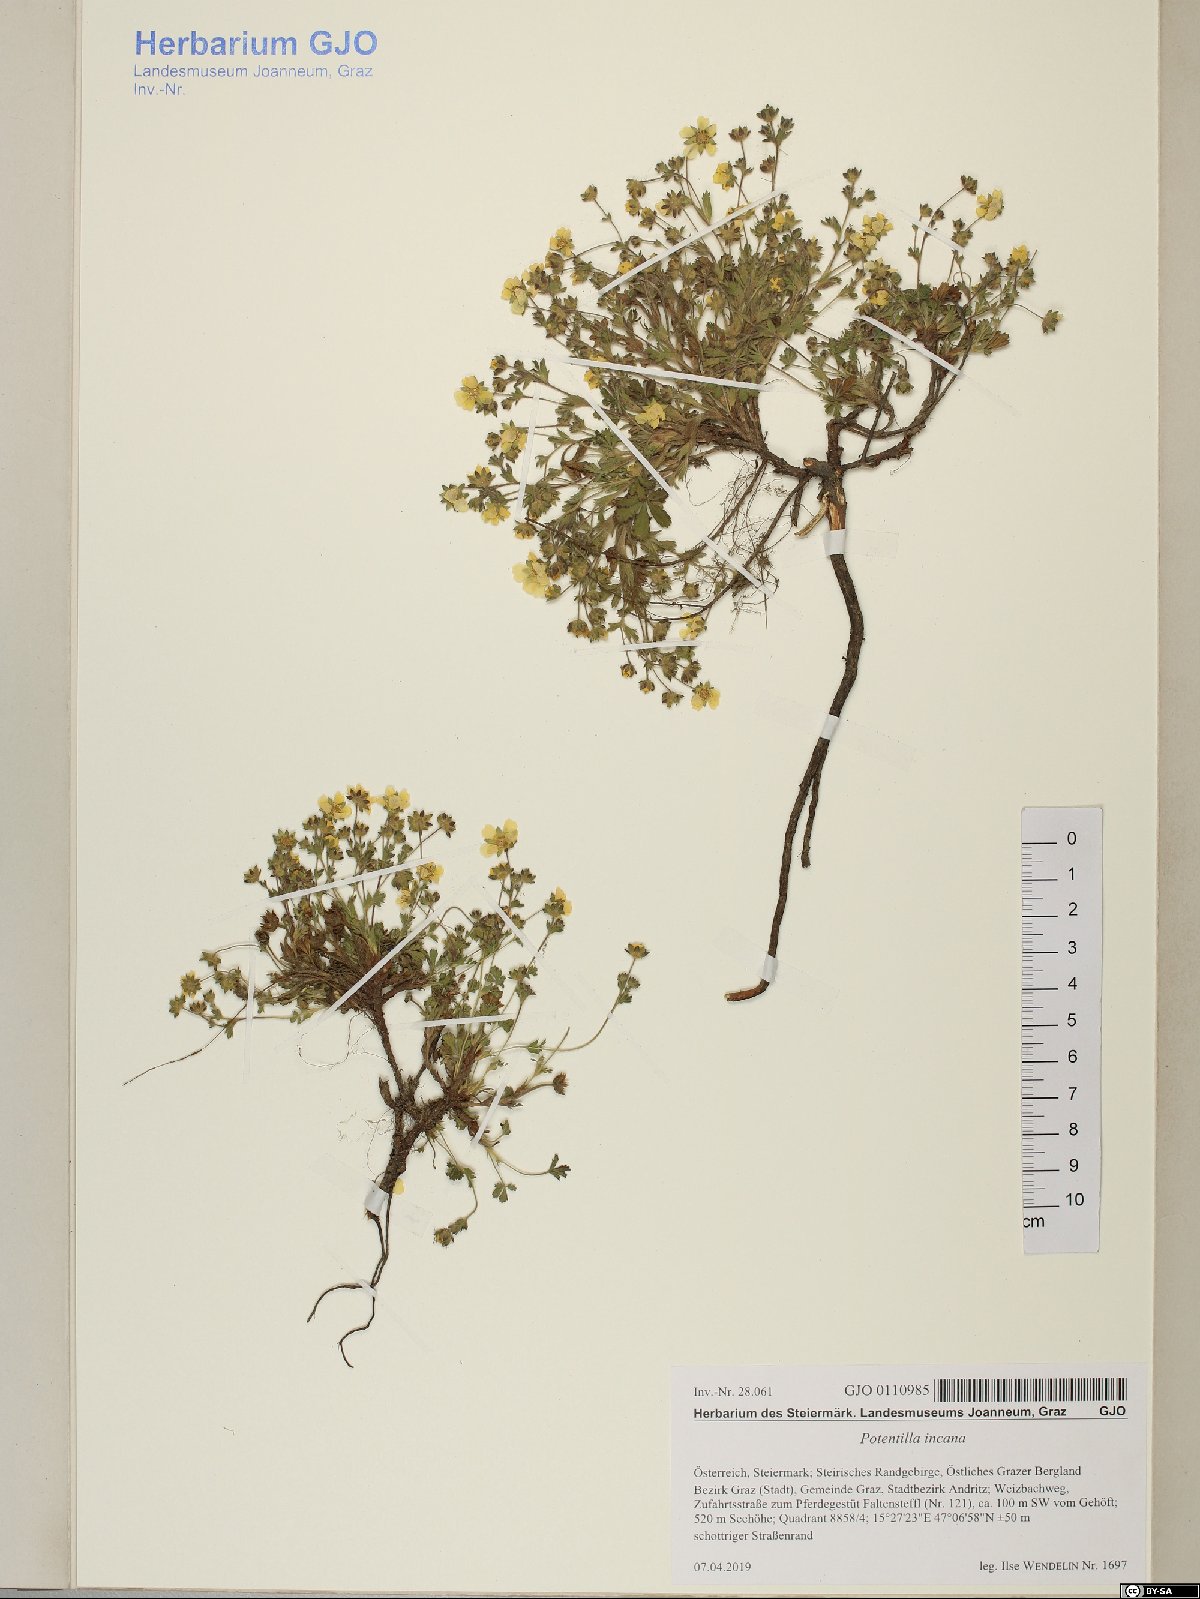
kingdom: Plantae
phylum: Tracheophyta
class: Magnoliopsida
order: Rosales
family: Rosaceae
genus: Potentilla
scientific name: Potentilla cinerea
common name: Ashy cinquefoil
